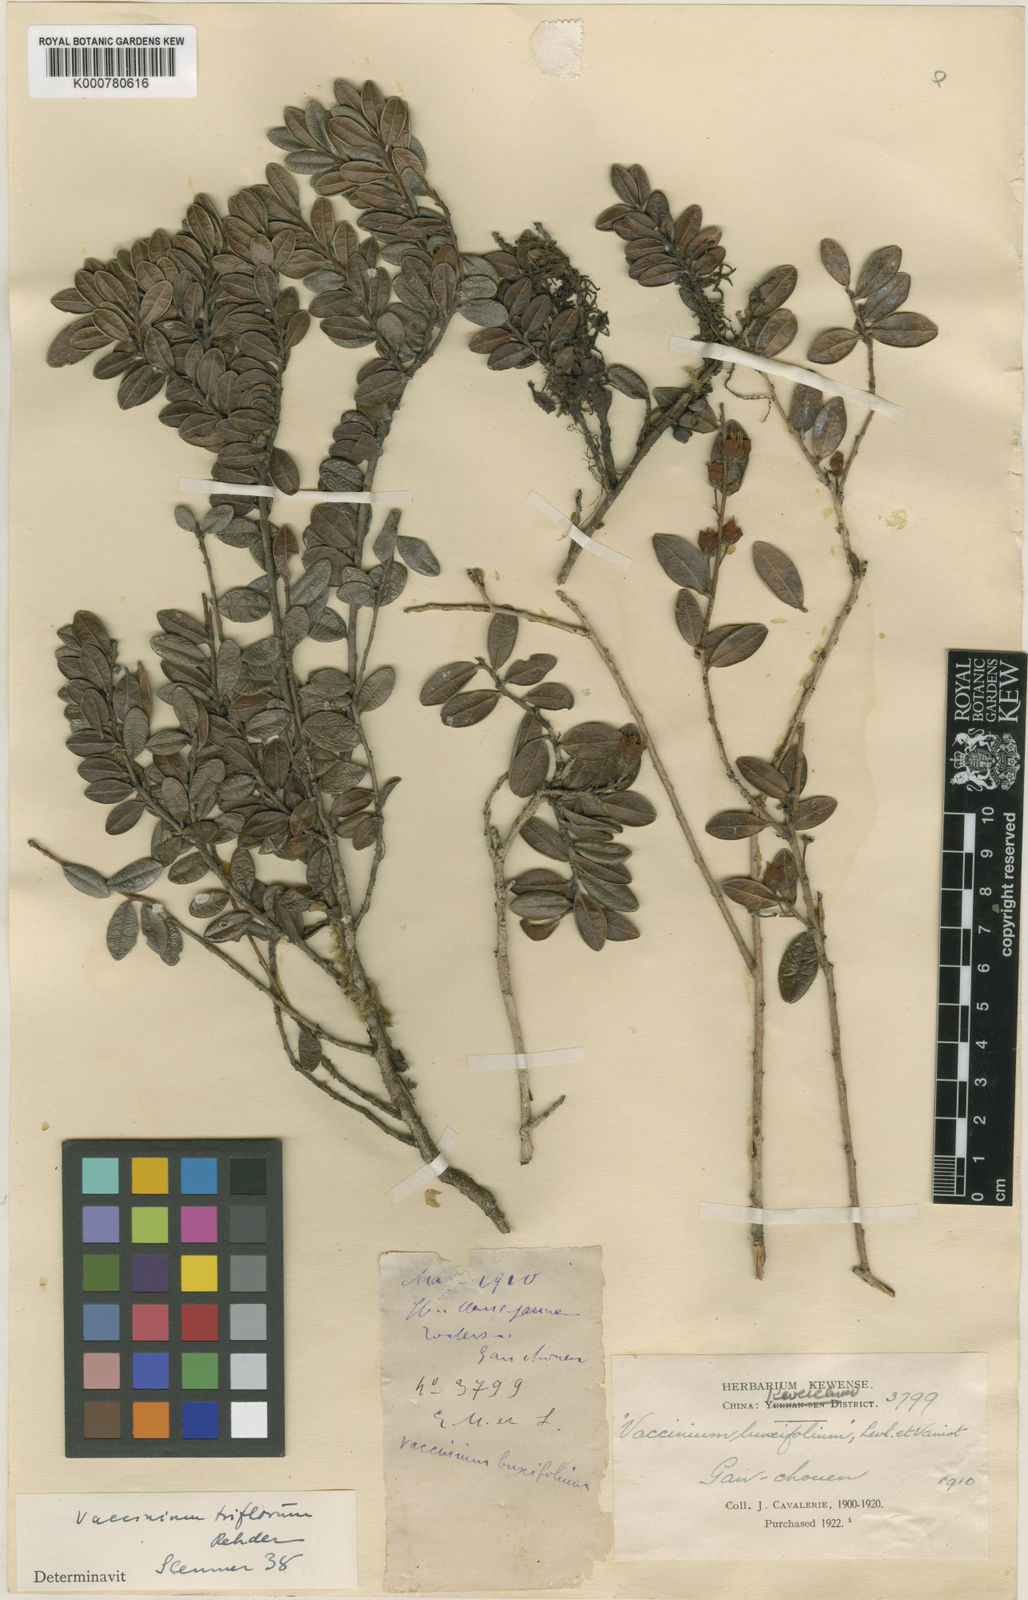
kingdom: Plantae
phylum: Tracheophyta
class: Magnoliopsida
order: Ericales
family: Ericaceae
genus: Vaccinium
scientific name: Vaccinium triflorum
